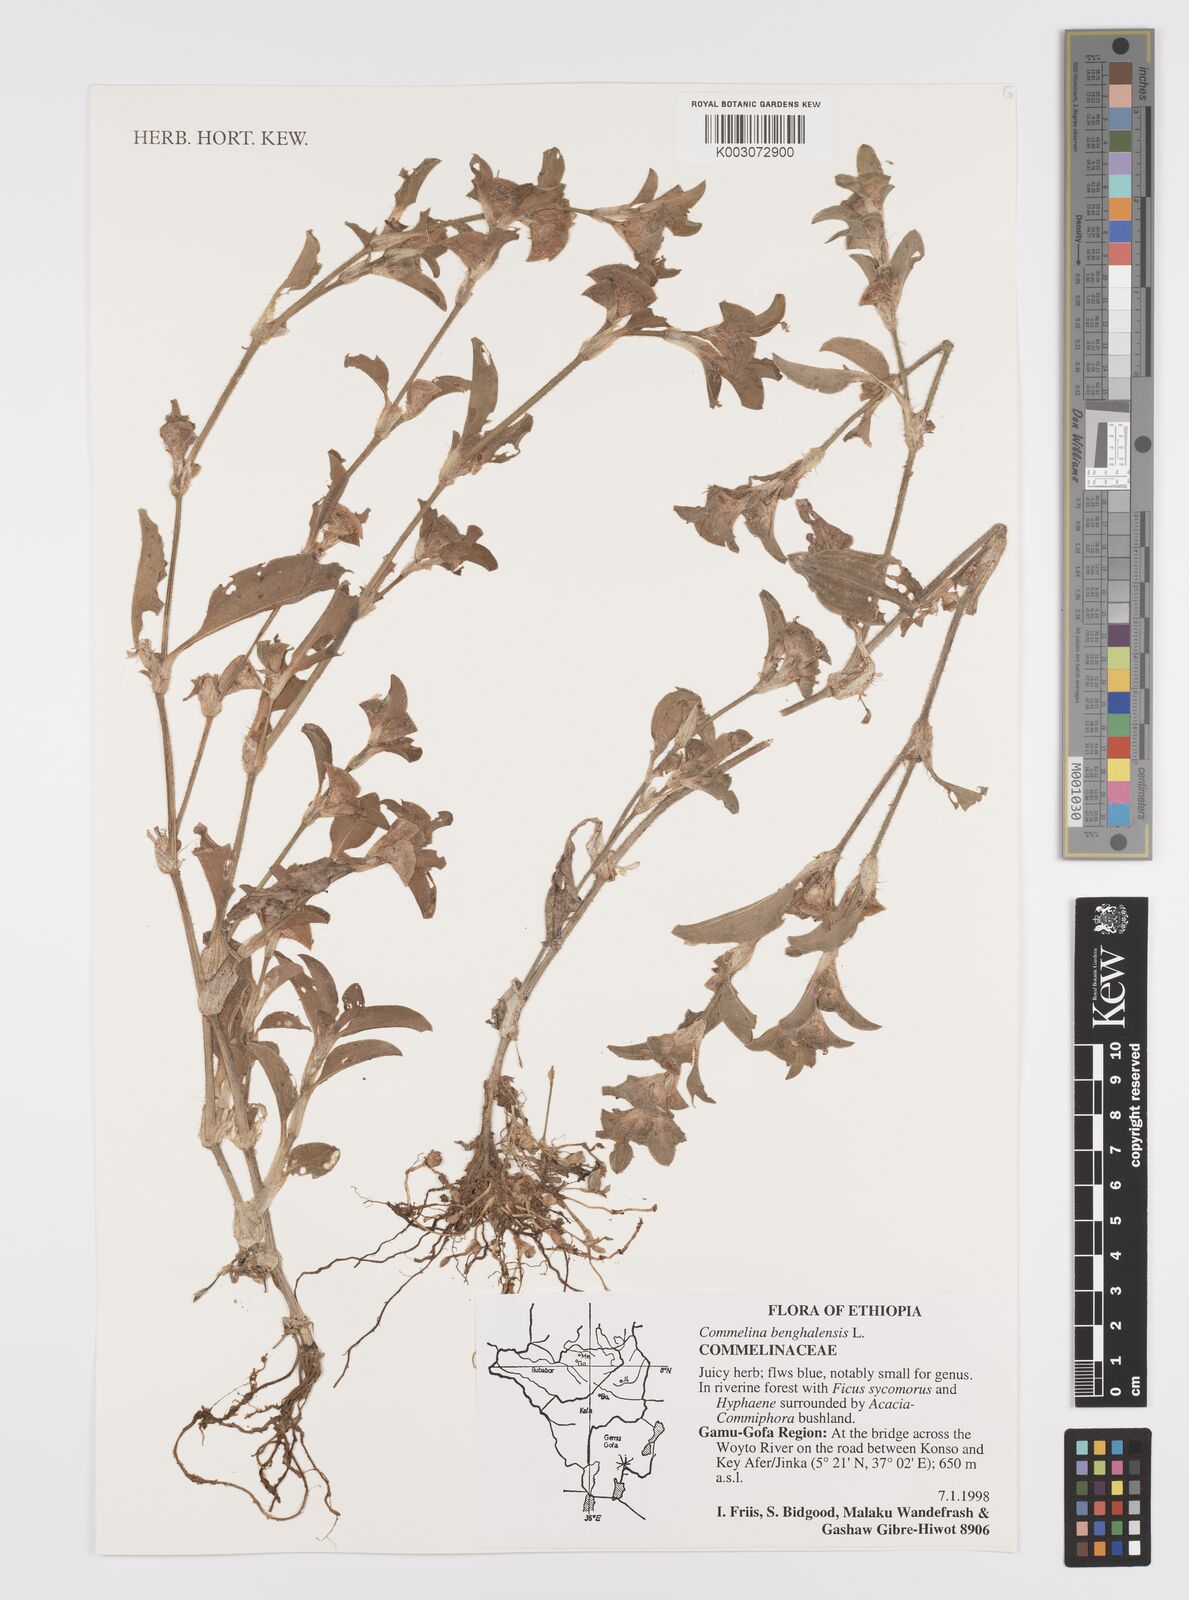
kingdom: Plantae
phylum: Tracheophyta
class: Liliopsida
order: Commelinales
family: Commelinaceae
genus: Commelina
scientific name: Commelina benghalensis
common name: Jio
